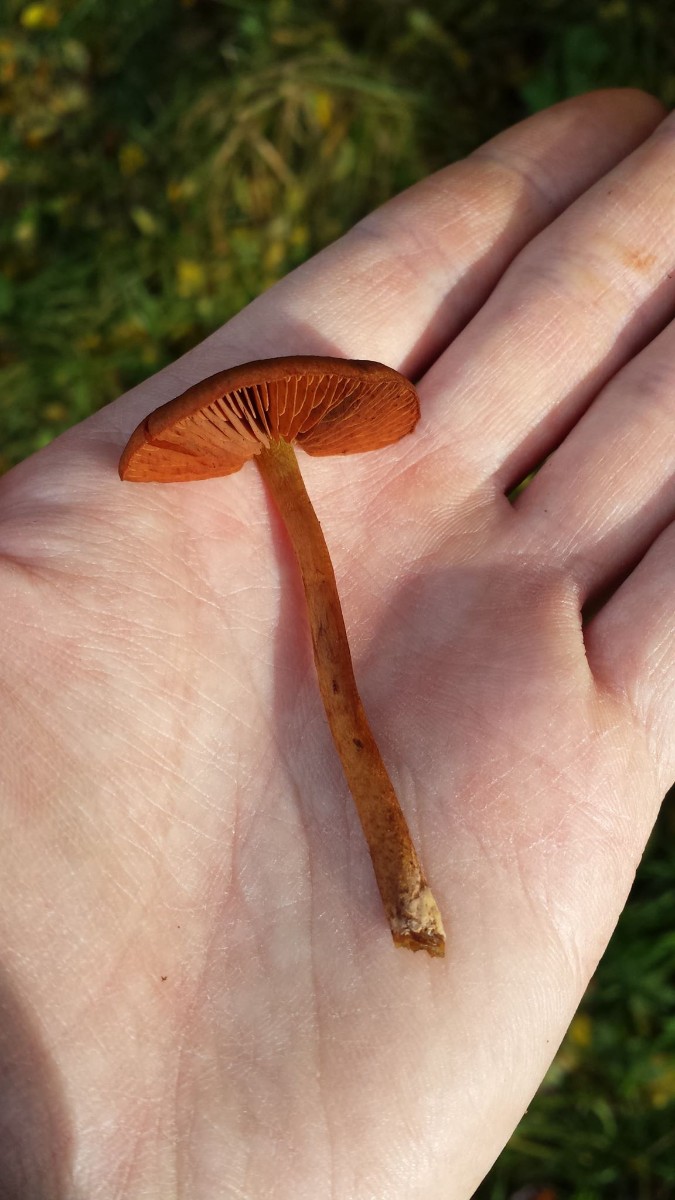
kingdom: Fungi
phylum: Basidiomycota
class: Agaricomycetes
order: Agaricales
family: Cortinariaceae
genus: Cortinarius
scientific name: Cortinarius cinnamomeus
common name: kanel-slørhat
